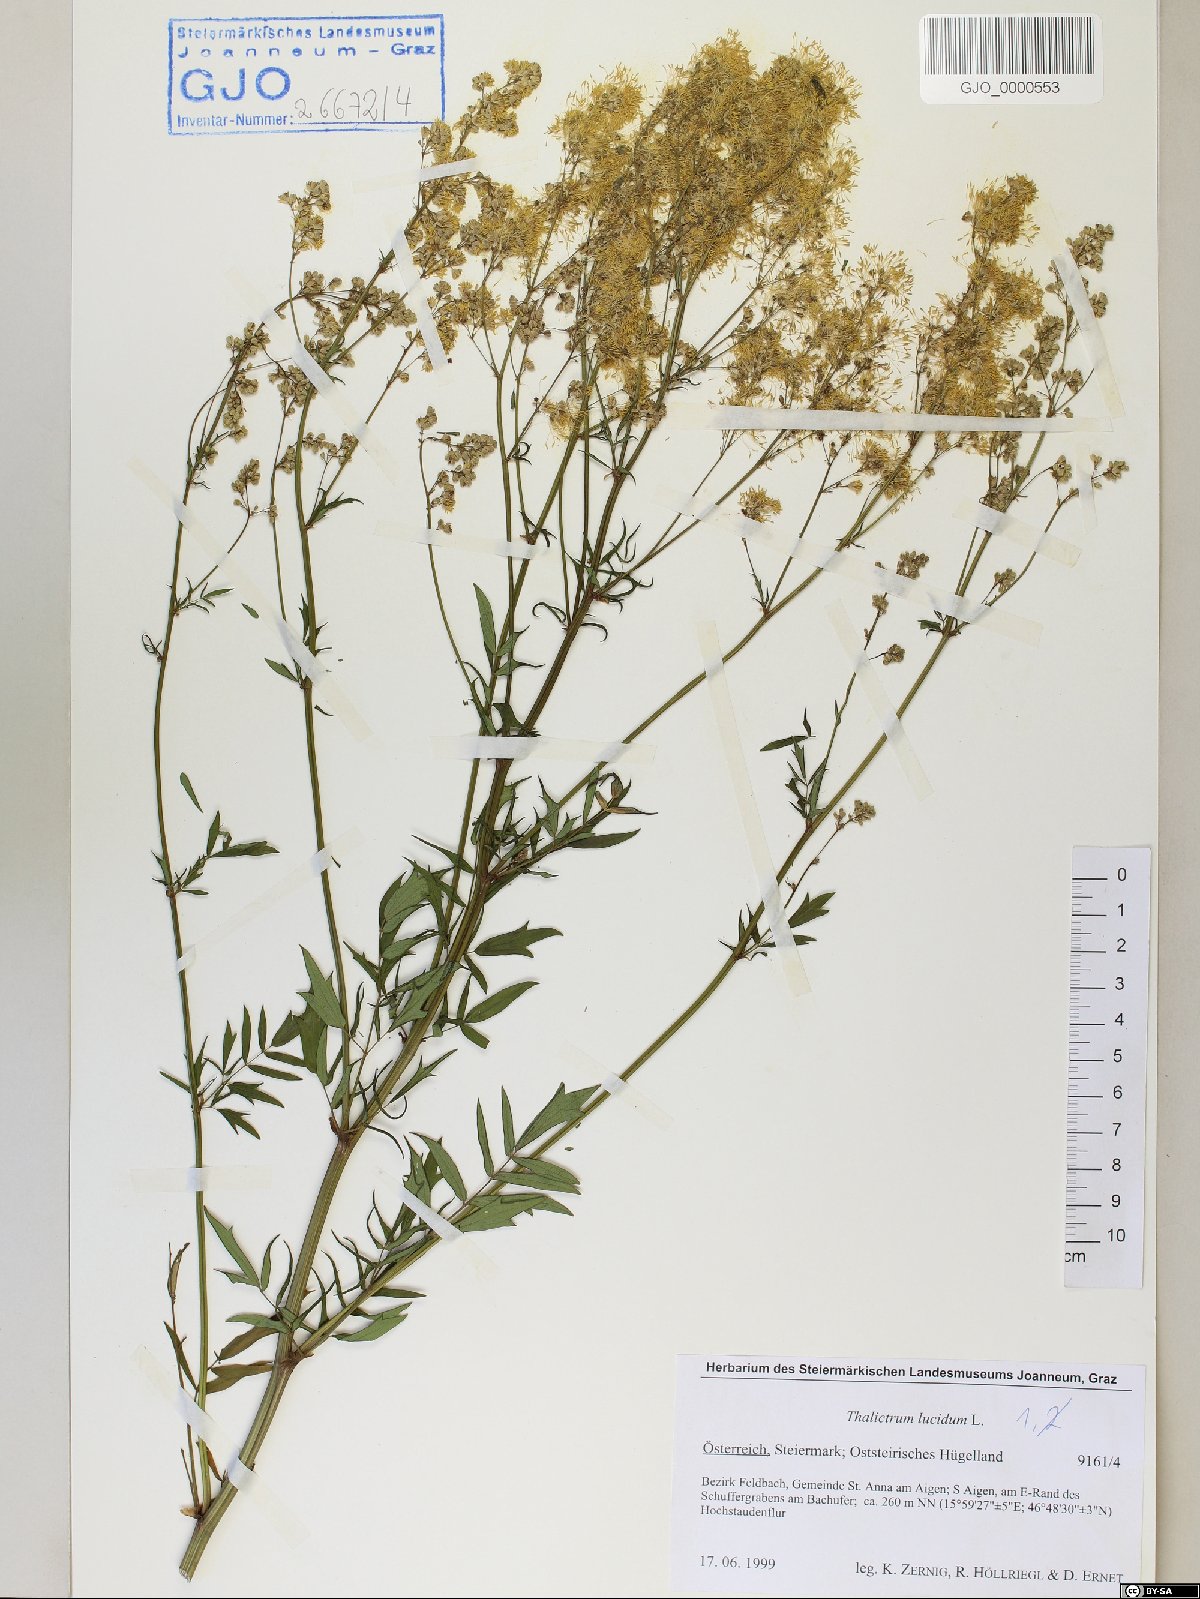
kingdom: Plantae
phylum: Tracheophyta
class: Magnoliopsida
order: Ranunculales
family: Ranunculaceae
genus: Thalictrum
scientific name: Thalictrum lucidum
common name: Shining meadow-rue
